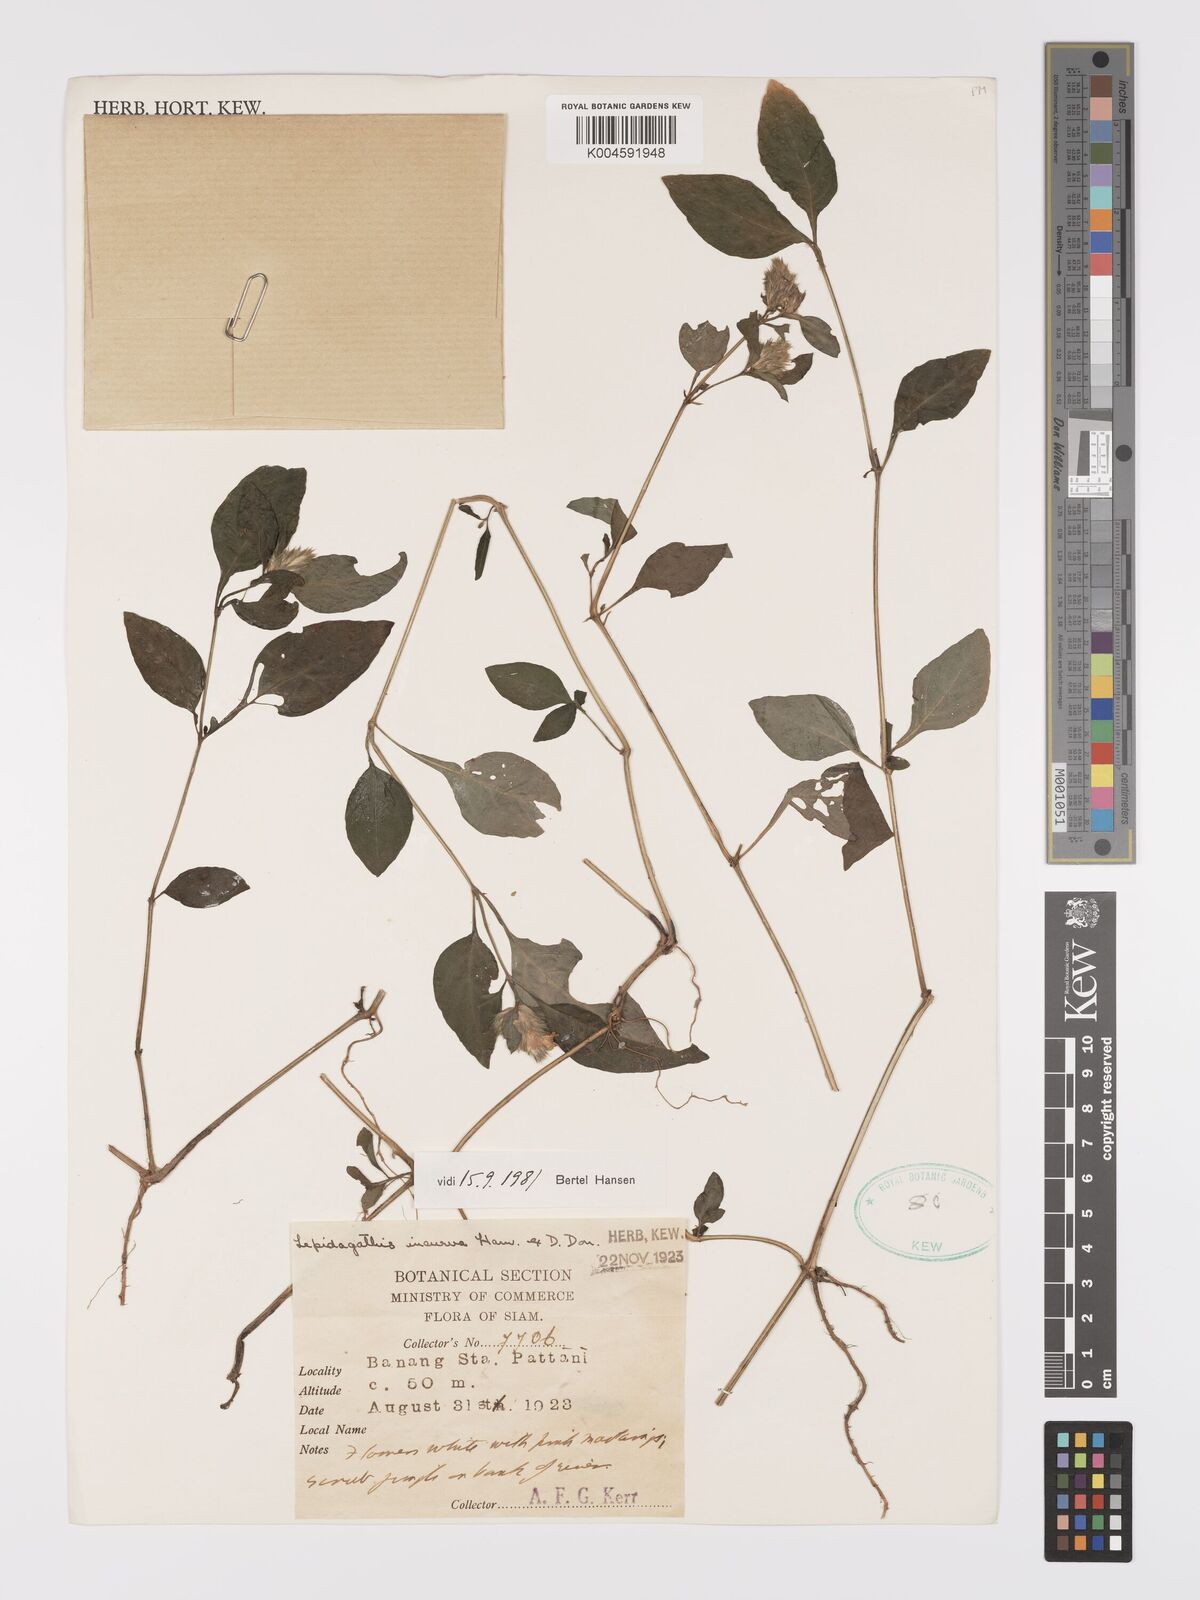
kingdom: Plantae
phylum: Tracheophyta
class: Magnoliopsida
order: Lamiales
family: Acanthaceae
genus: Lepidagathis
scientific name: Lepidagathis incurva
